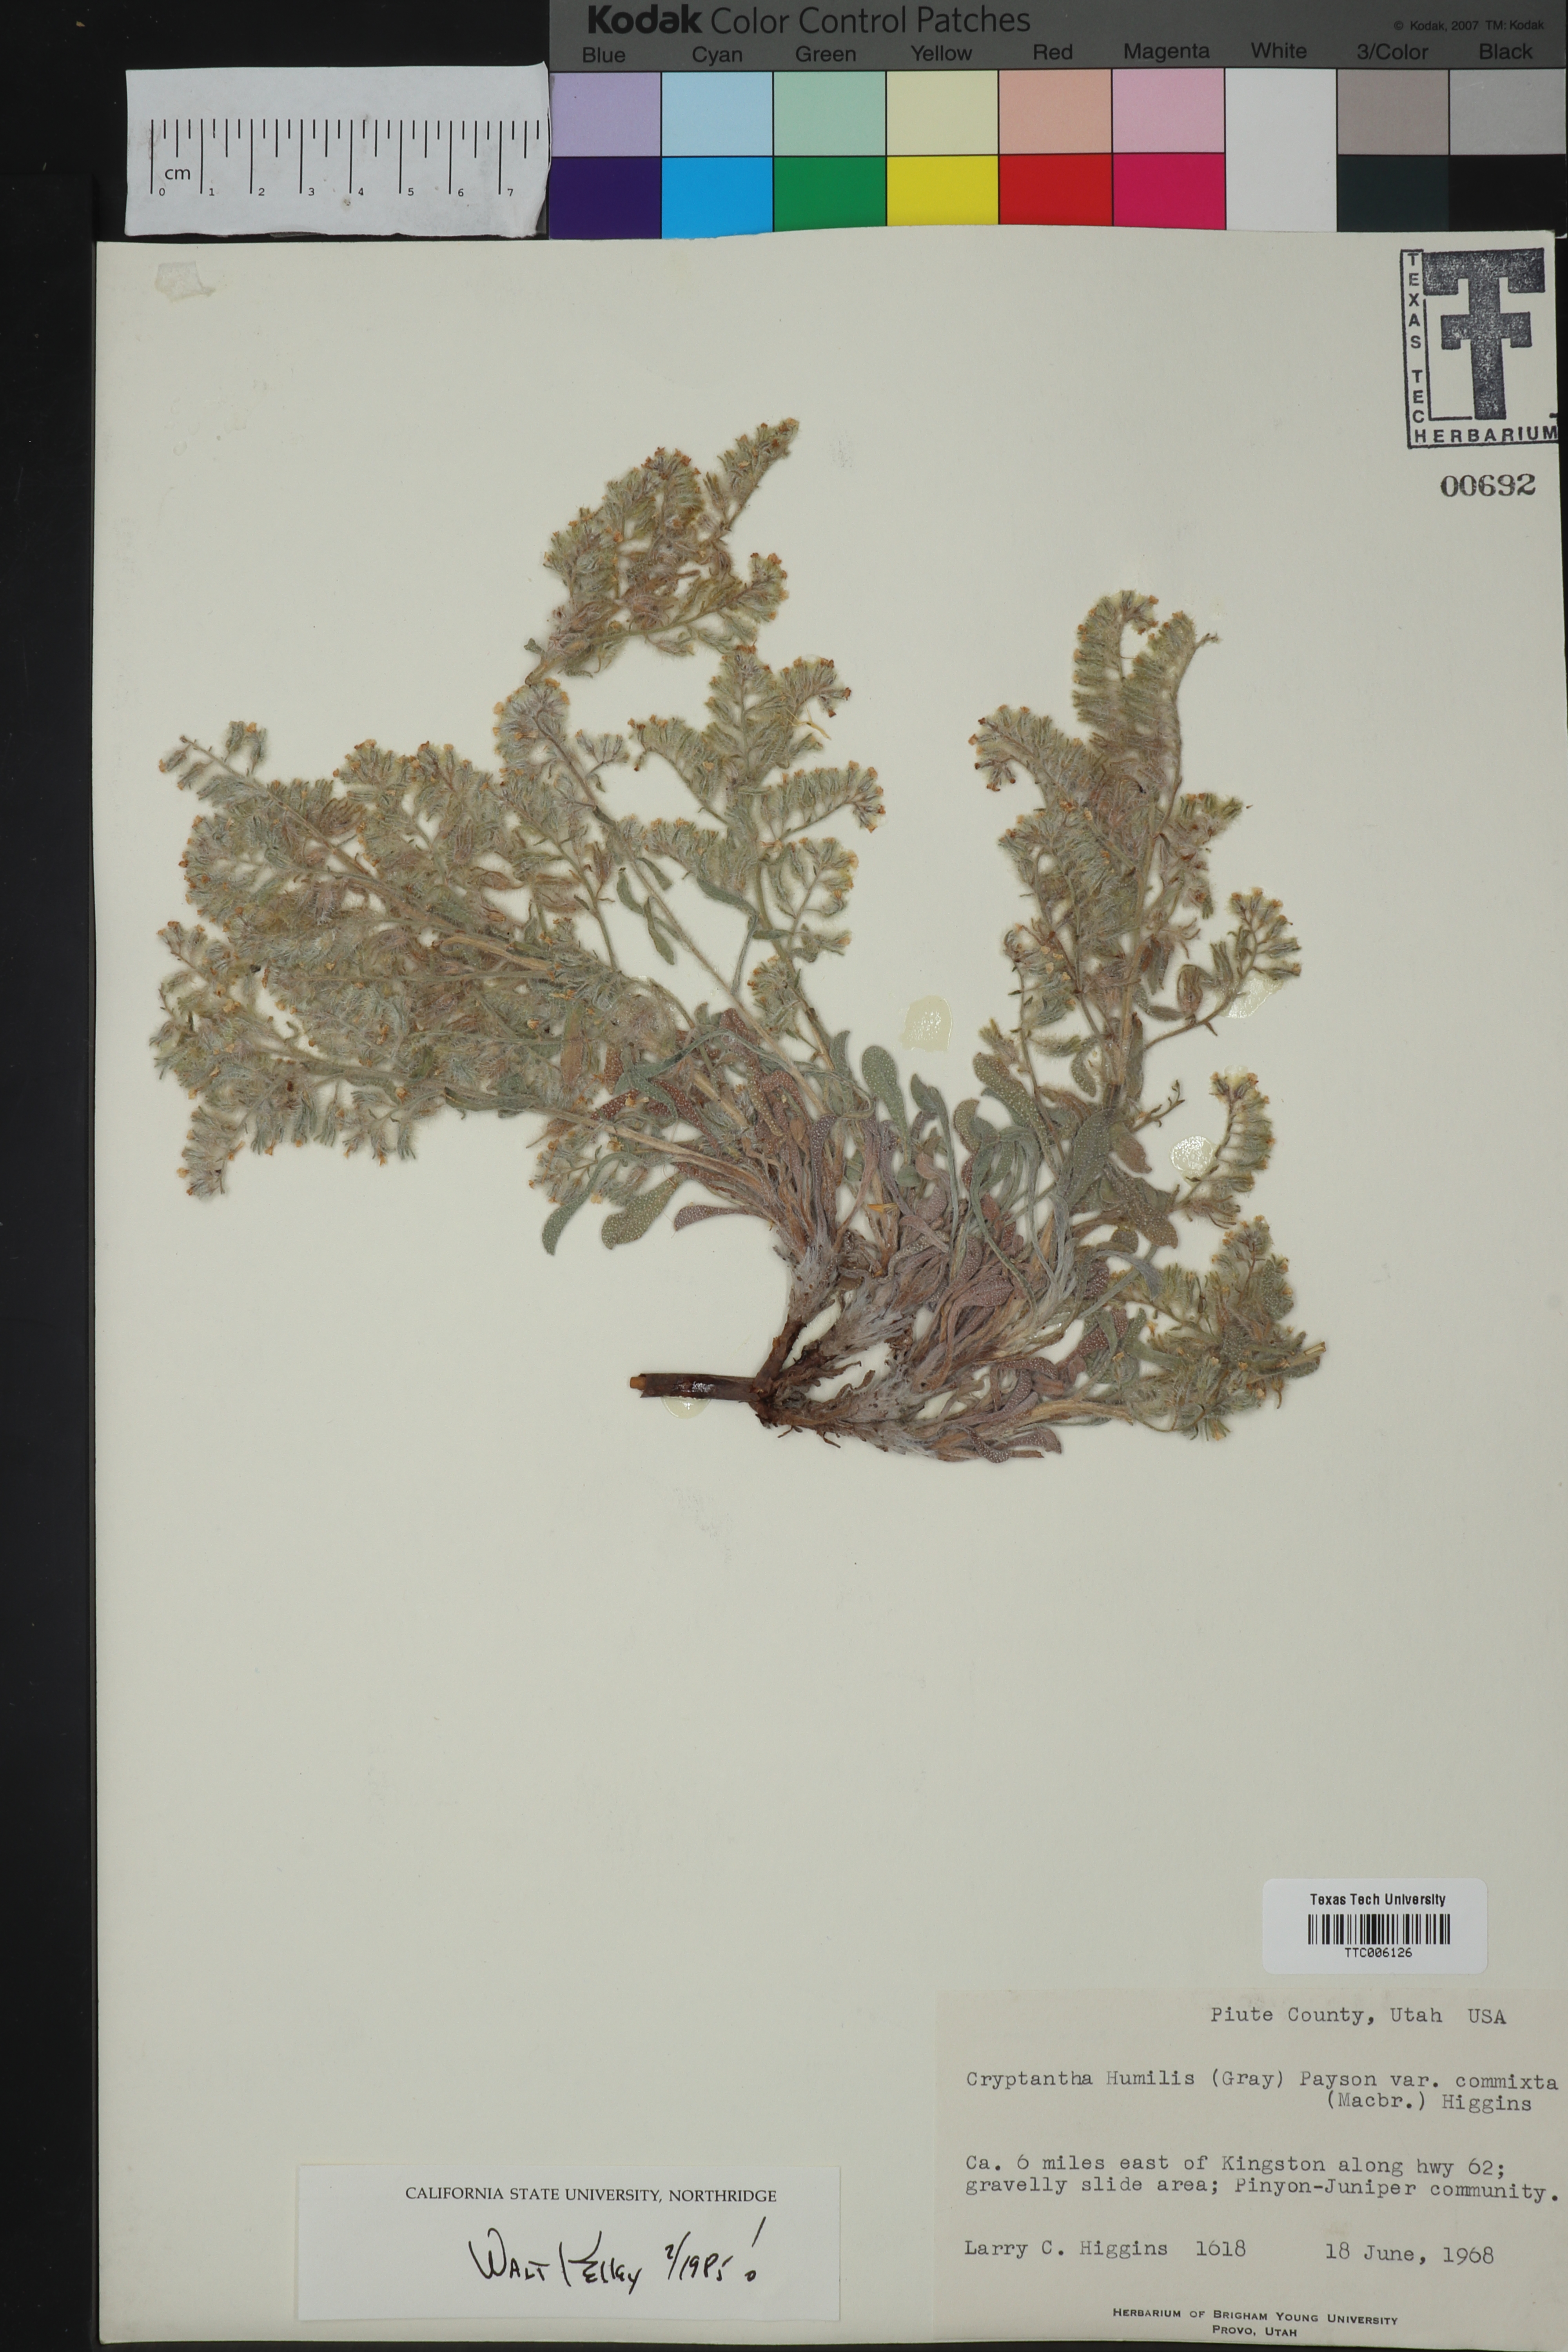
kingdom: Plantae
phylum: Tracheophyta
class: Magnoliopsida
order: Boraginales
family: Boraginaceae
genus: Oreocarya
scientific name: Oreocarya humilis
